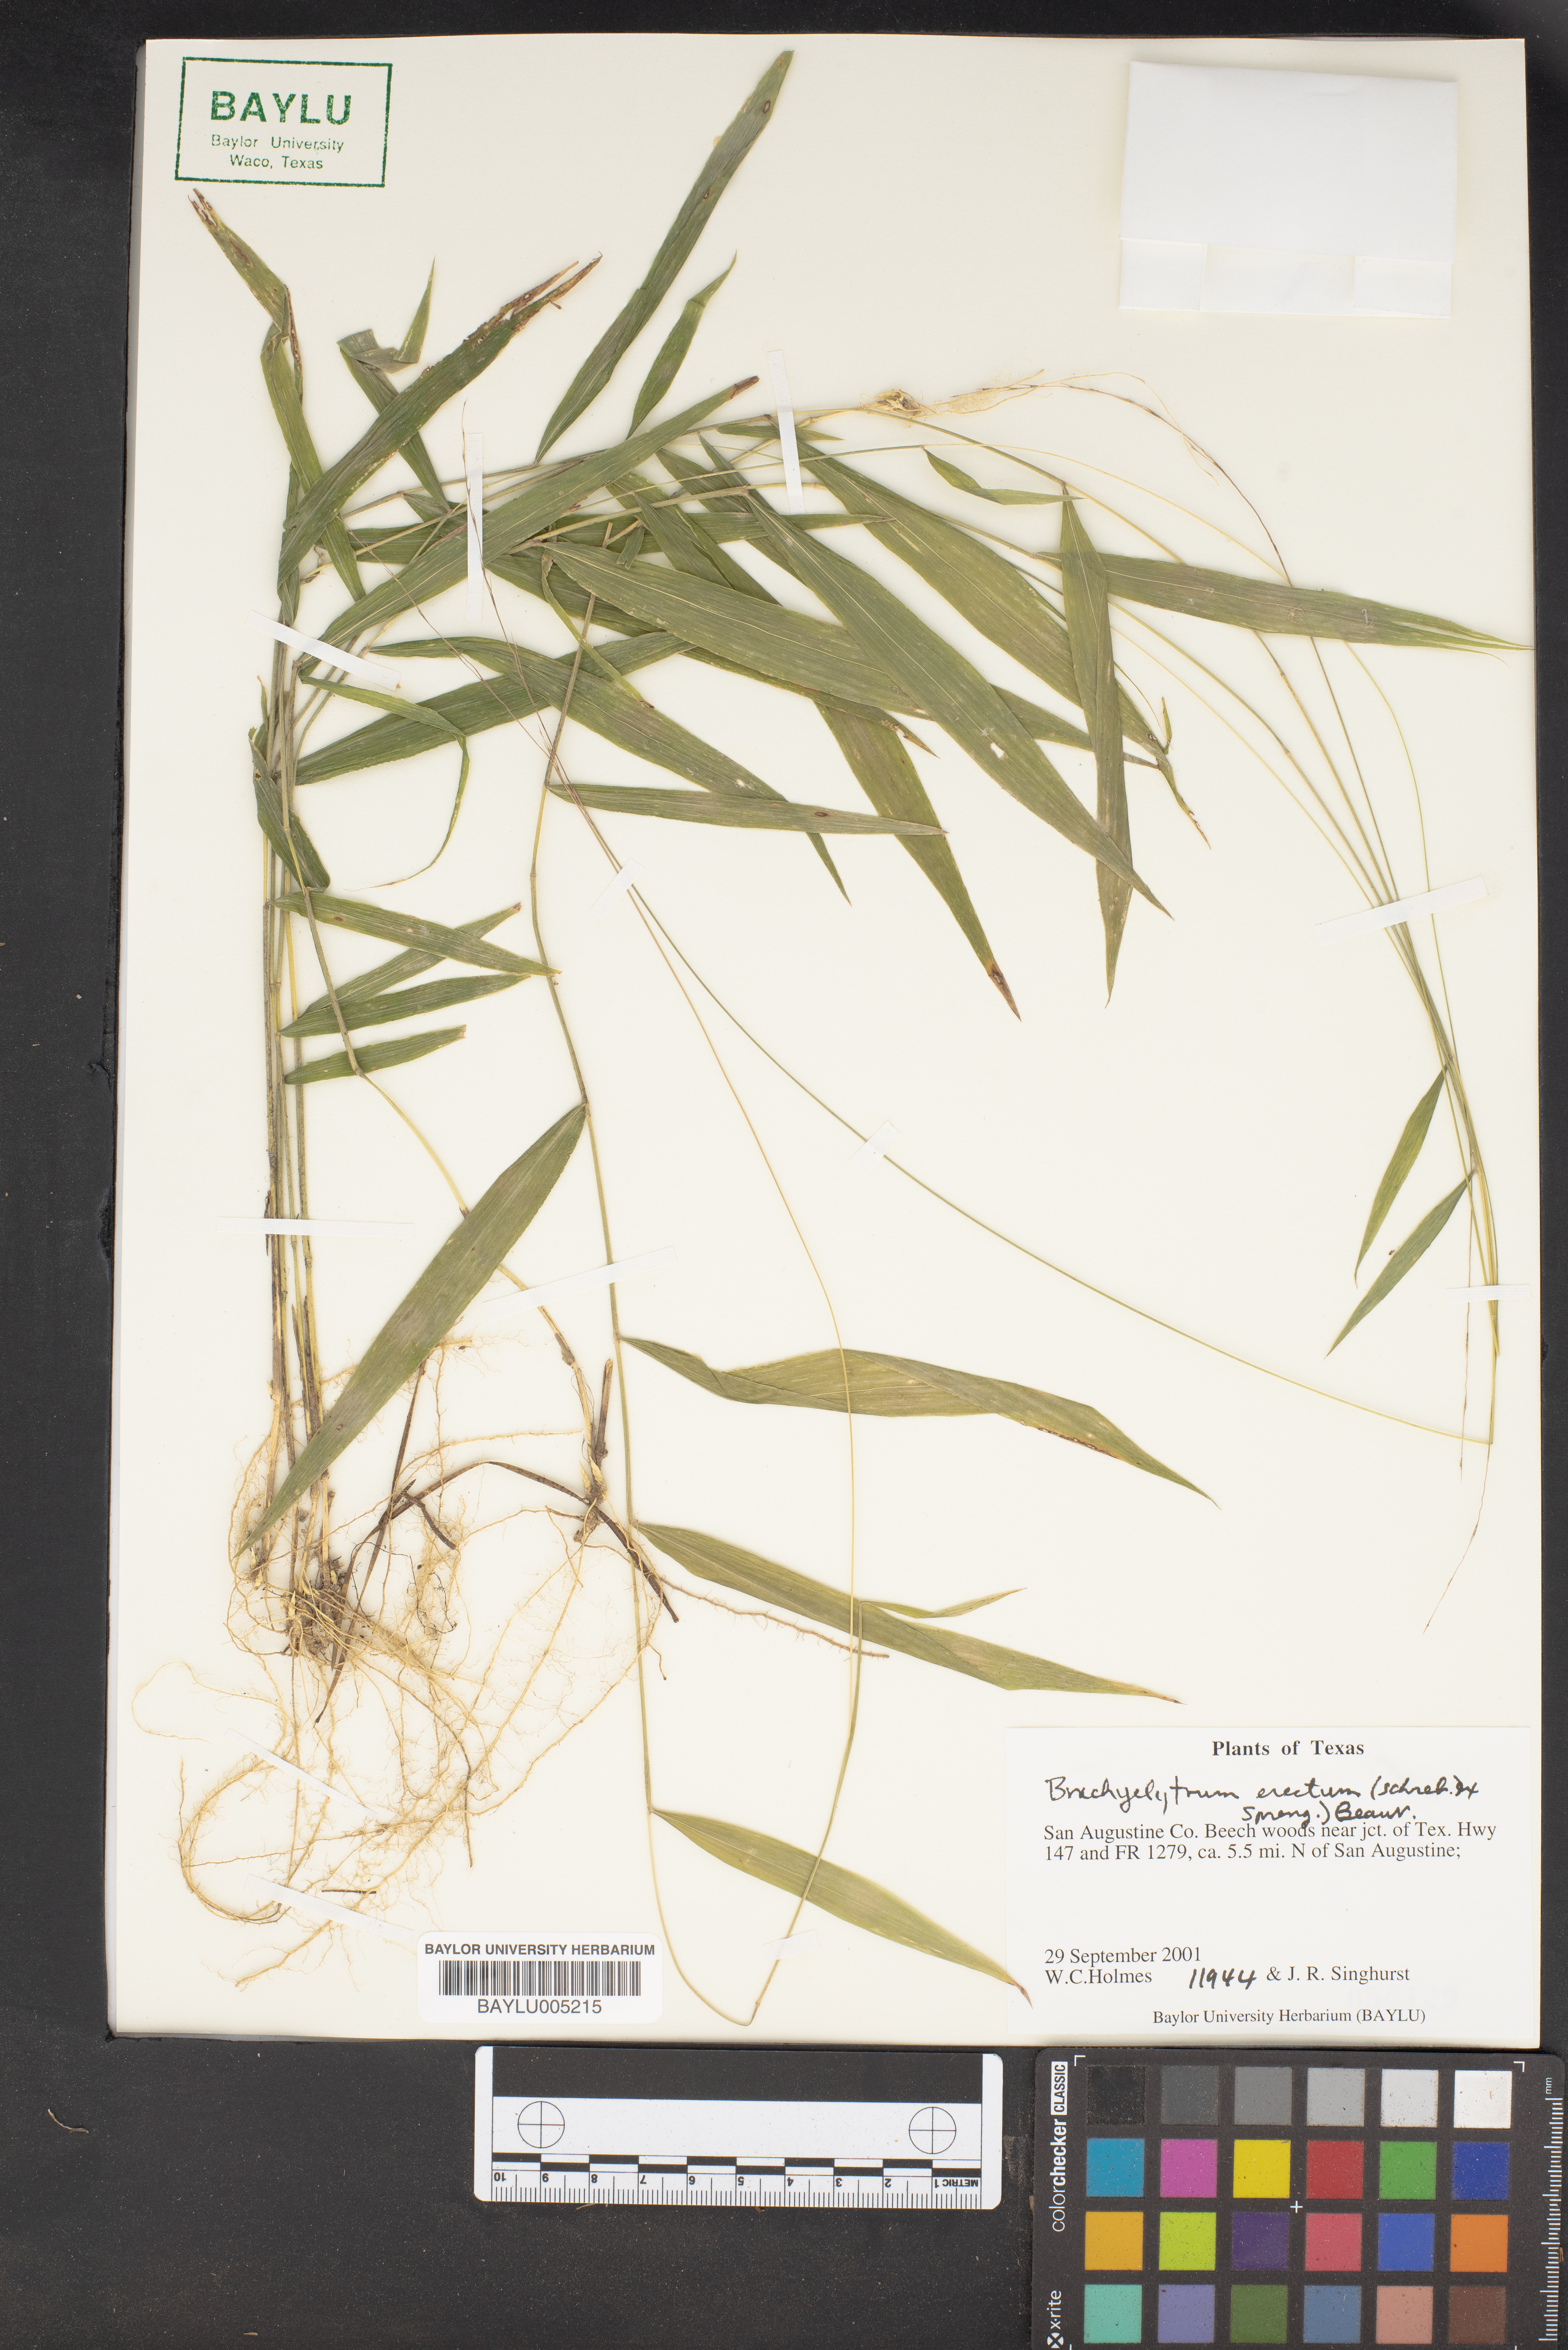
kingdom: Plantae
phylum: Tracheophyta
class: Liliopsida
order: Poales
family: Poaceae
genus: Brachyelytrum
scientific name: Brachyelytrum erectum
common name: Bearded shorthusk
